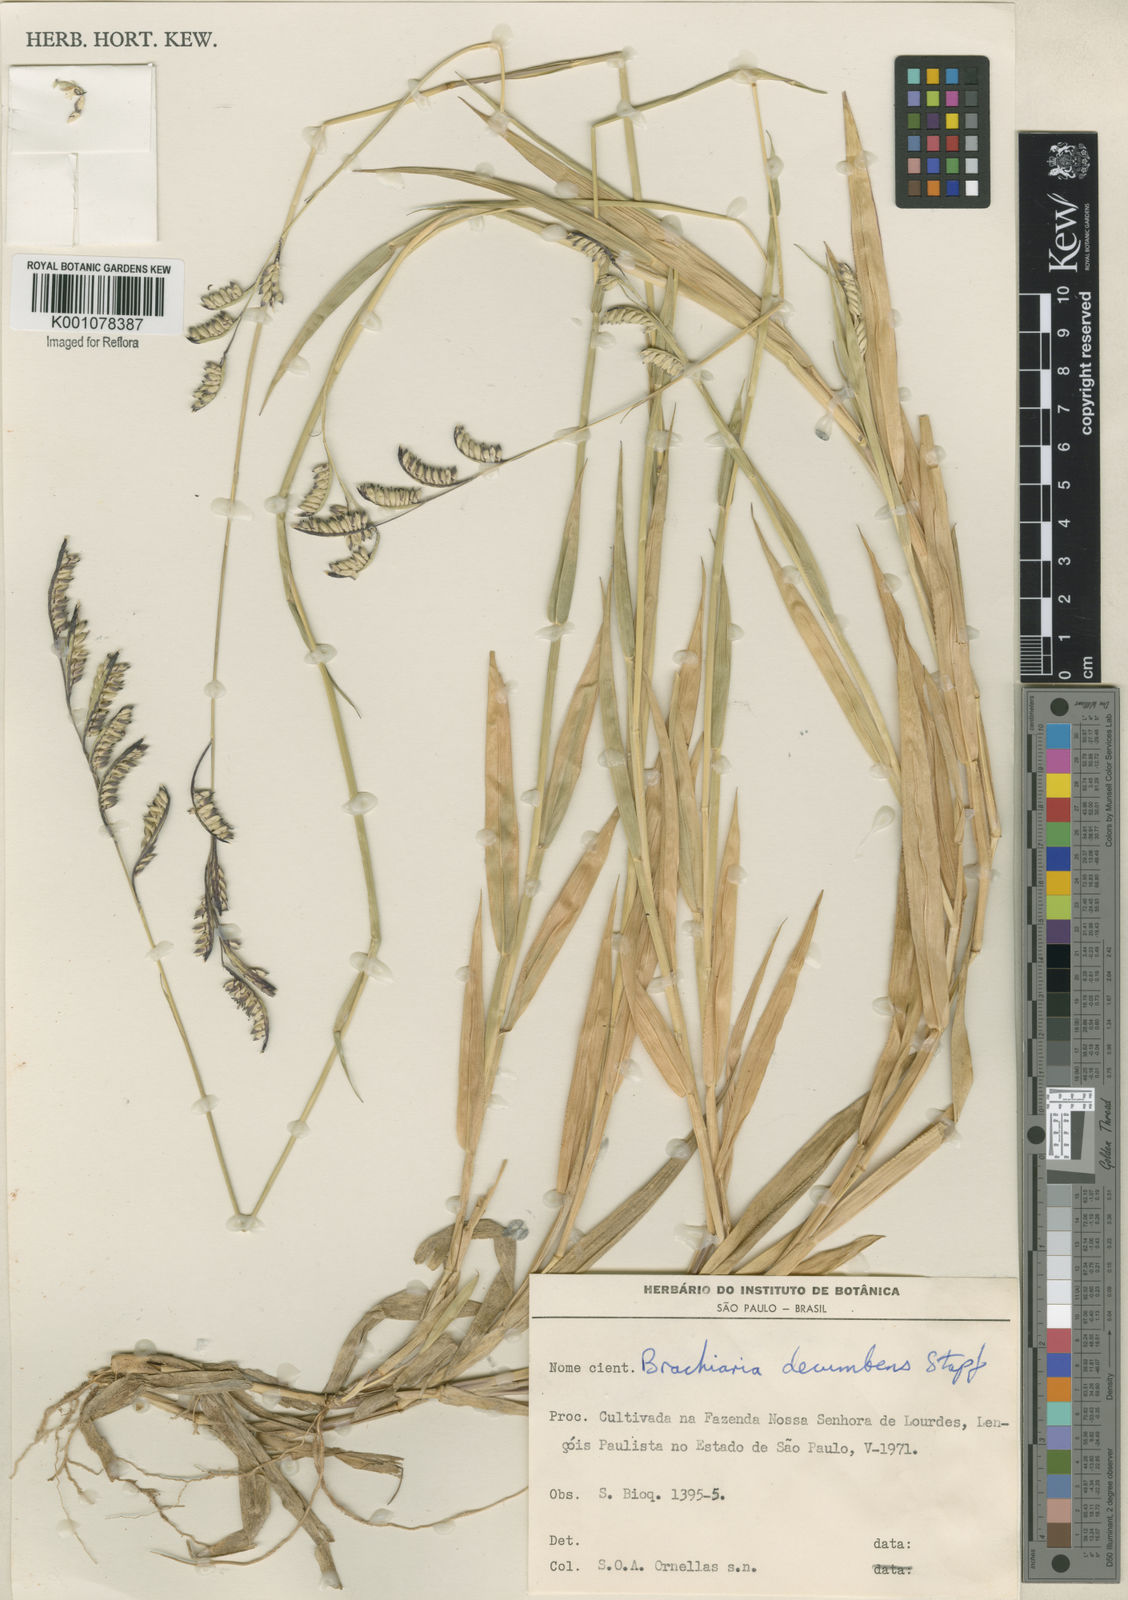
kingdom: Plantae
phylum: Tracheophyta
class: Liliopsida
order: Poales
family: Poaceae
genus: Urochloa
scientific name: Urochloa eminii
